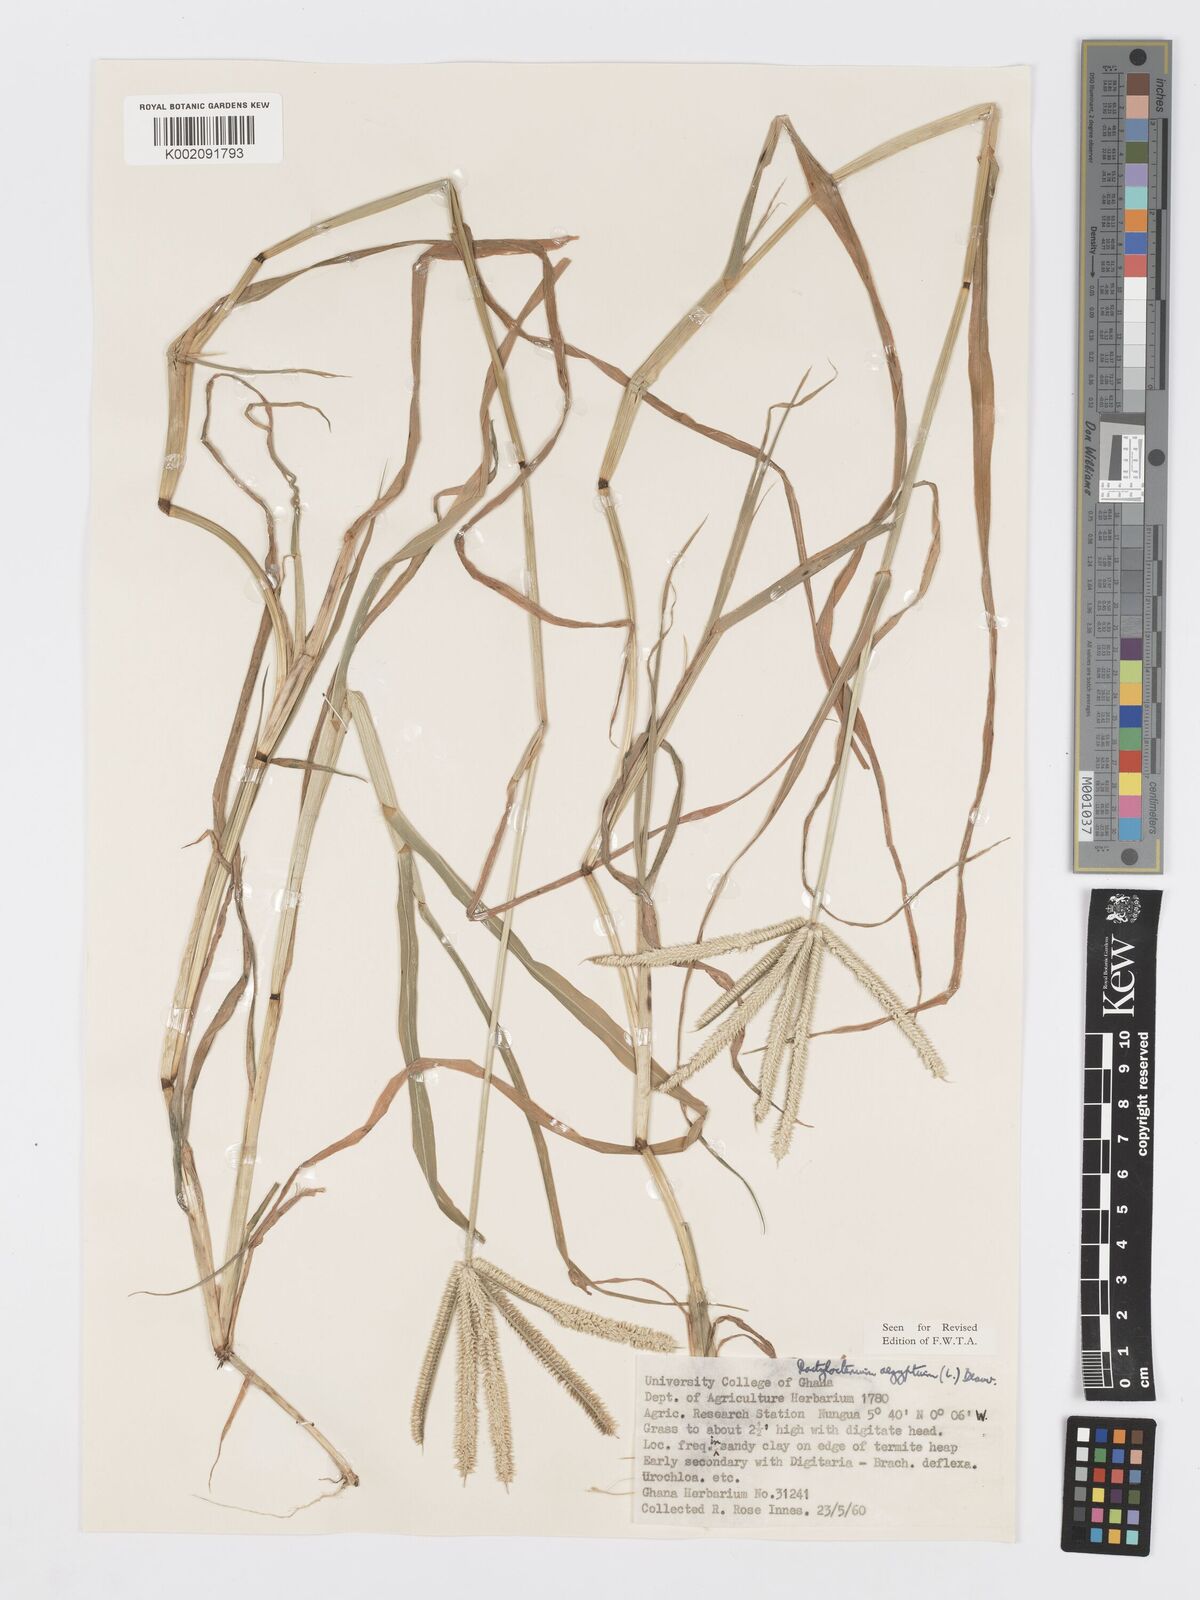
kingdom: Plantae
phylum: Tracheophyta
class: Liliopsida
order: Poales
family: Poaceae
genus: Dactyloctenium
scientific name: Dactyloctenium aegyptium
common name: Egyptian grass
